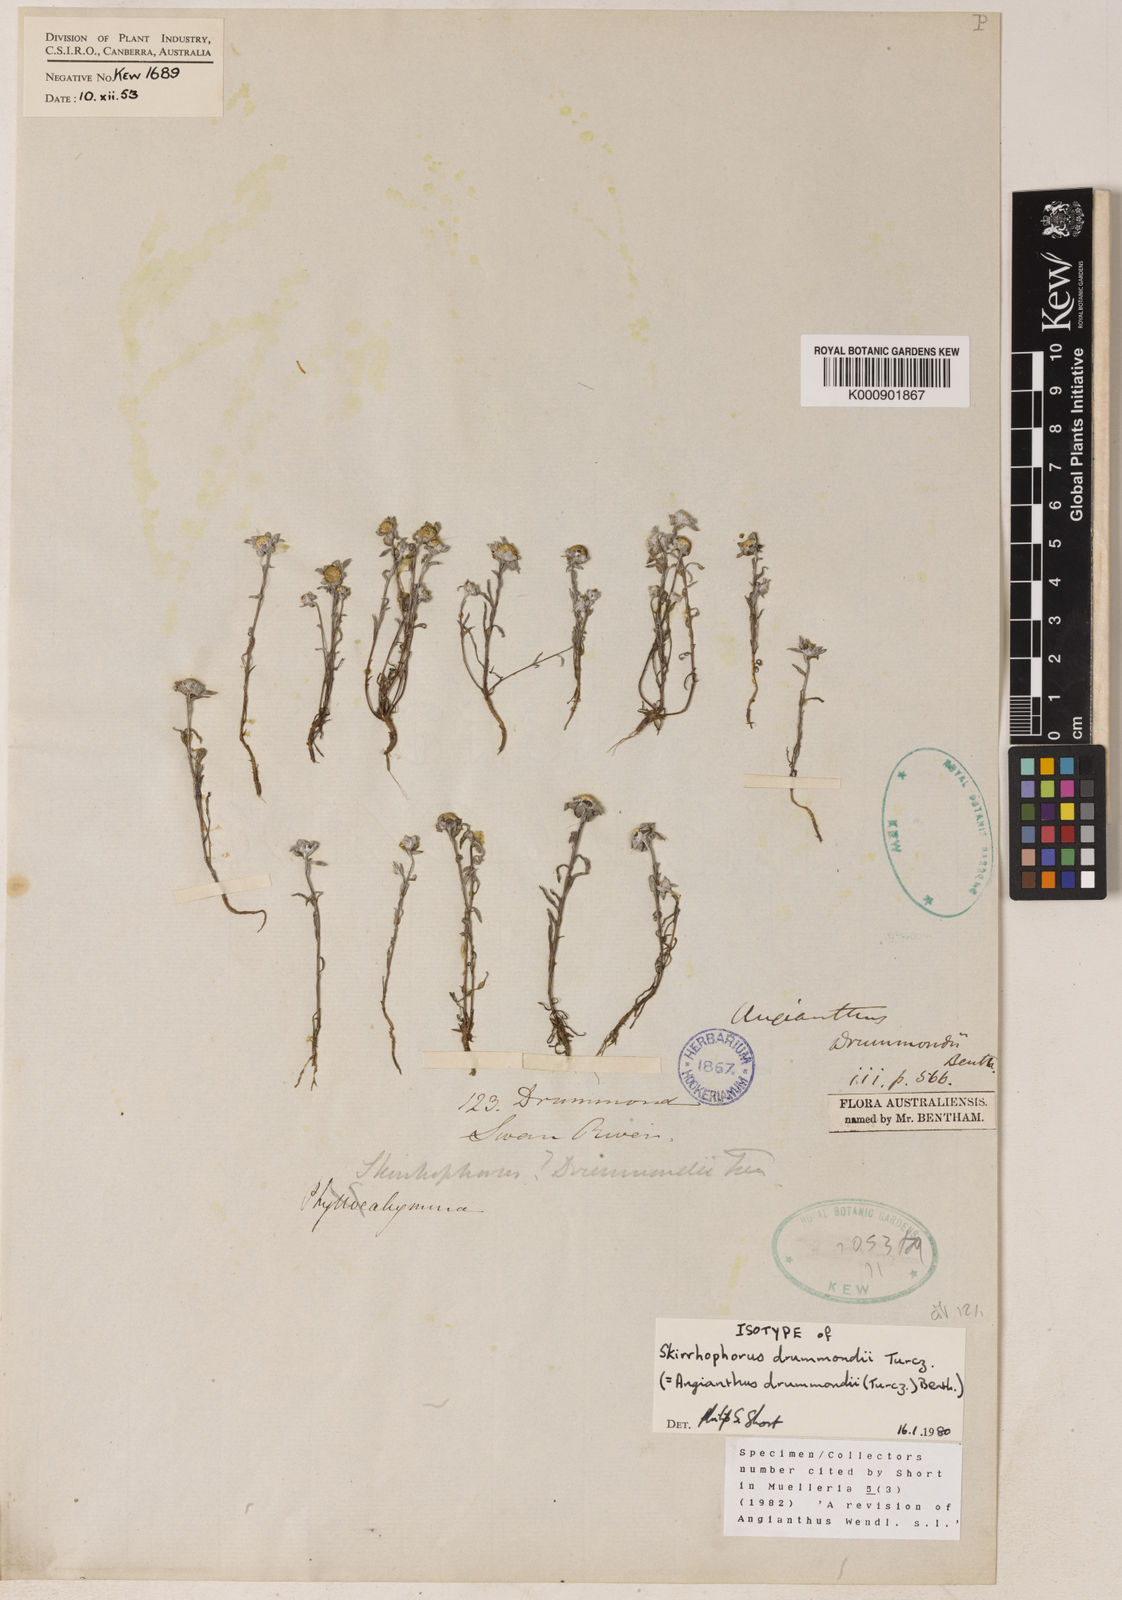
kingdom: Plantae
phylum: Tracheophyta
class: Magnoliopsida
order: Asterales
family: Asteraceae
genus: Angianthus
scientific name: Angianthus
